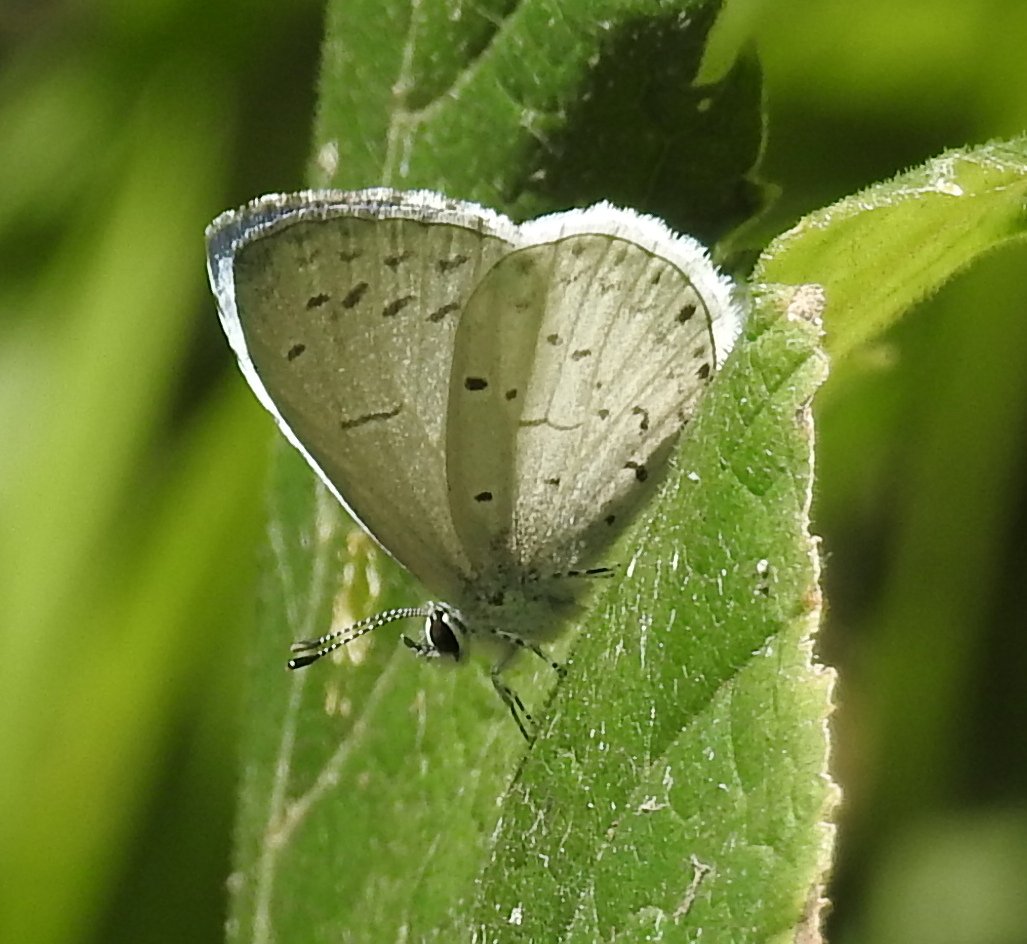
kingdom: Animalia
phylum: Arthropoda
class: Insecta
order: Lepidoptera
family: Lycaenidae
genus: Cyaniris
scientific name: Cyaniris neglecta
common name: Summer Azure
